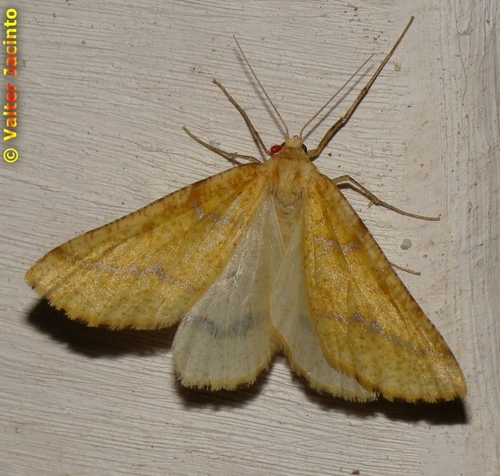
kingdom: Animalia
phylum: Arthropoda
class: Insecta
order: Lepidoptera
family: Geometridae
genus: Aspitates
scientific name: Aspitates ochrearia
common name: Yellow belle
